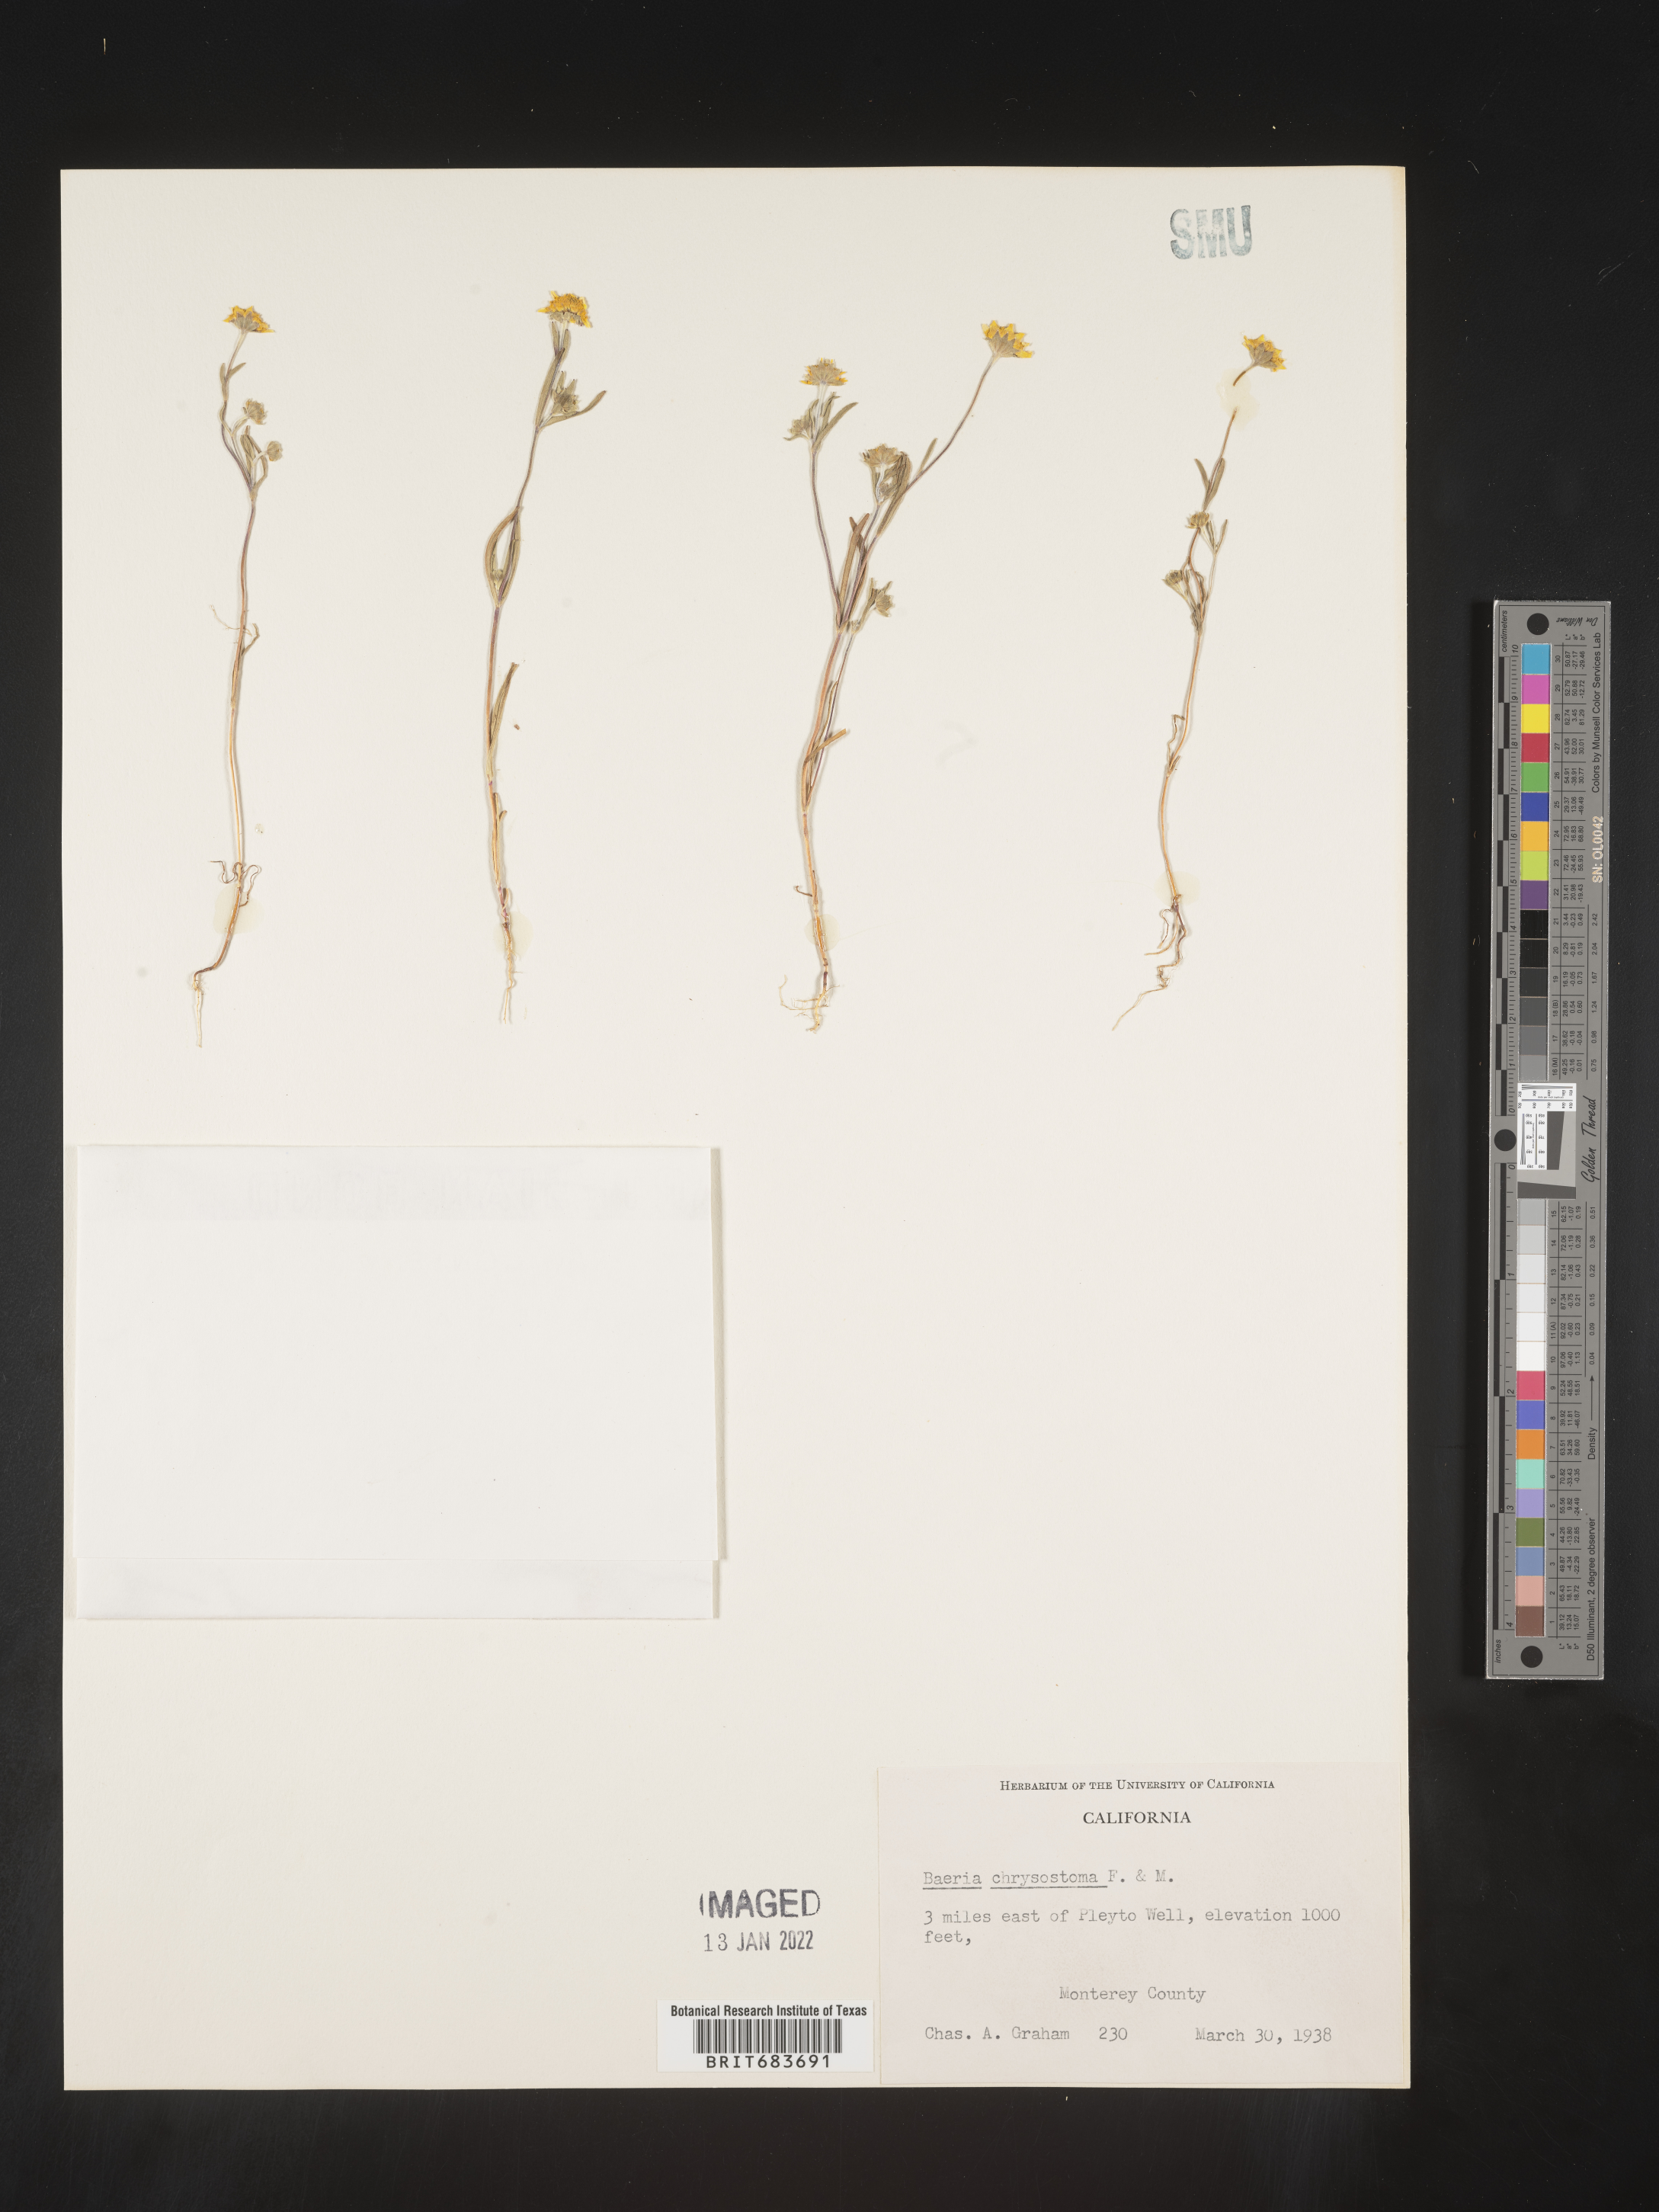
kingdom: Plantae
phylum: Tracheophyta
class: Magnoliopsida
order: Asterales
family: Asteraceae
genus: Lasthenia
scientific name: Lasthenia
